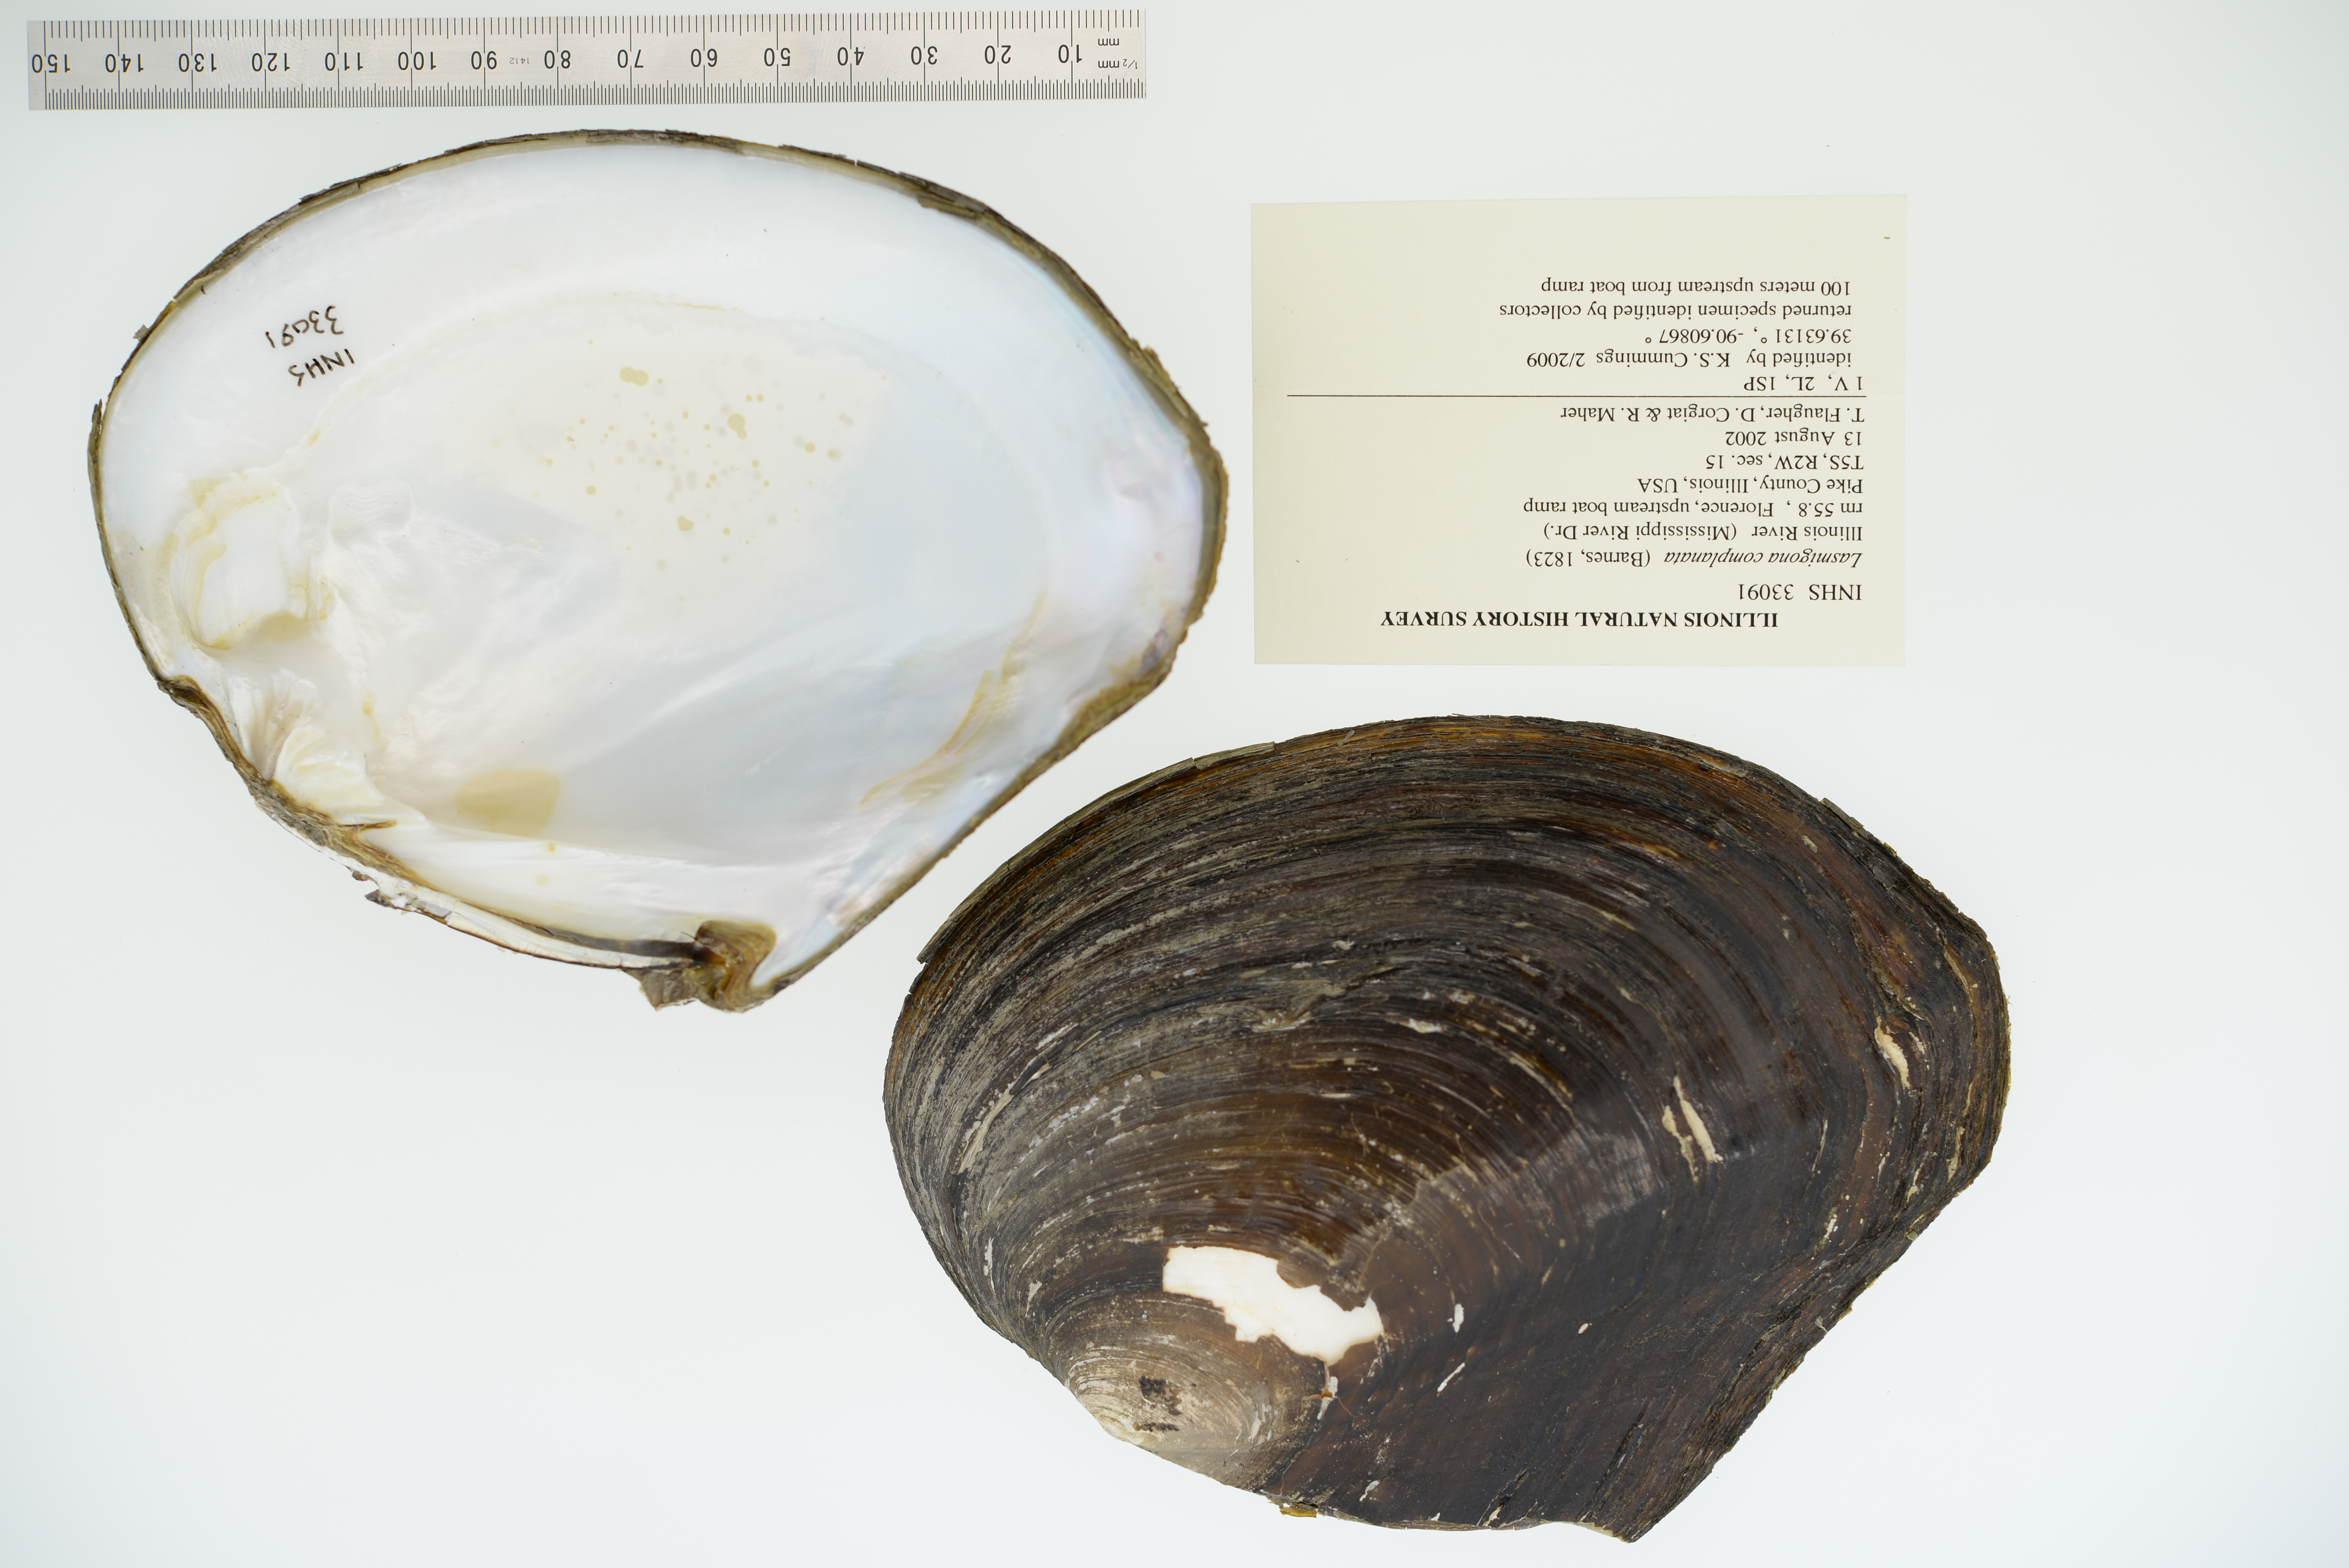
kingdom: Animalia
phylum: Mollusca
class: Bivalvia
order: Unionida
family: Unionidae
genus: Lasmigona
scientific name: Lasmigona complanata
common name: White heelsplitter
